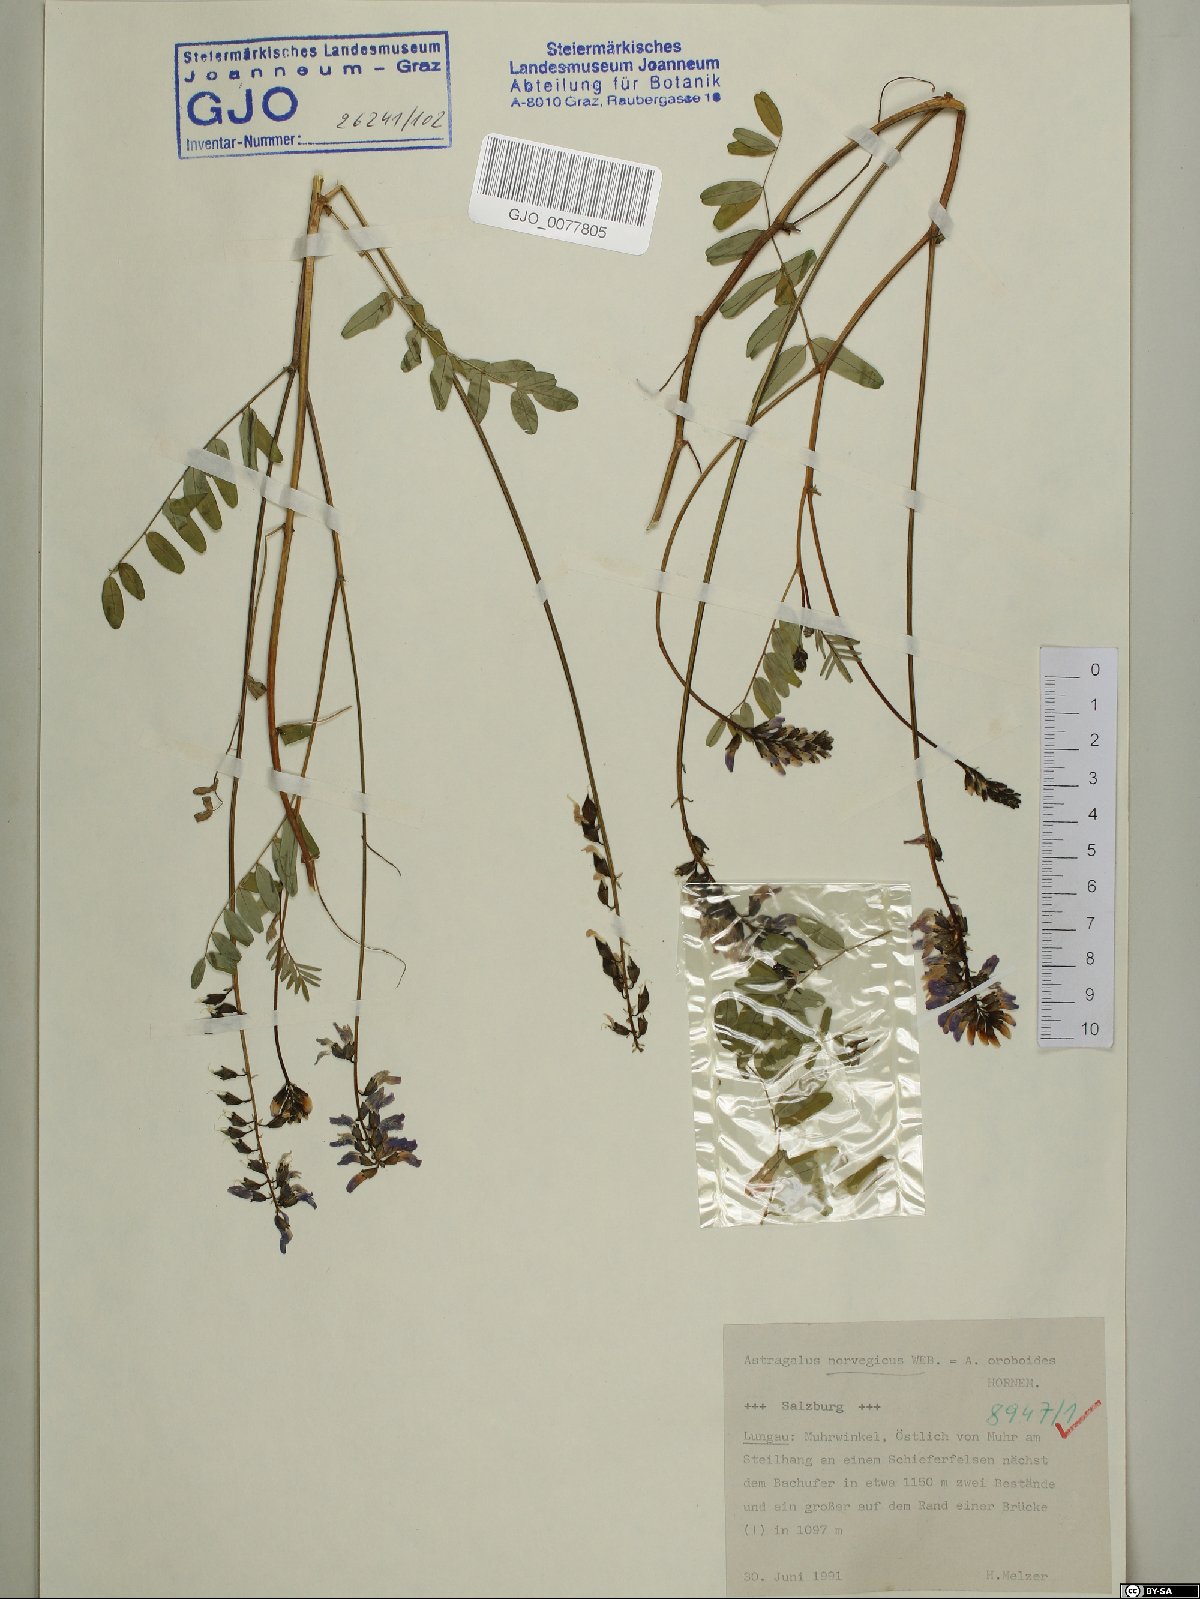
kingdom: Plantae
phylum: Tracheophyta
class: Magnoliopsida
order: Fabales
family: Fabaceae
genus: Astragalus
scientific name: Astragalus norvegicus
